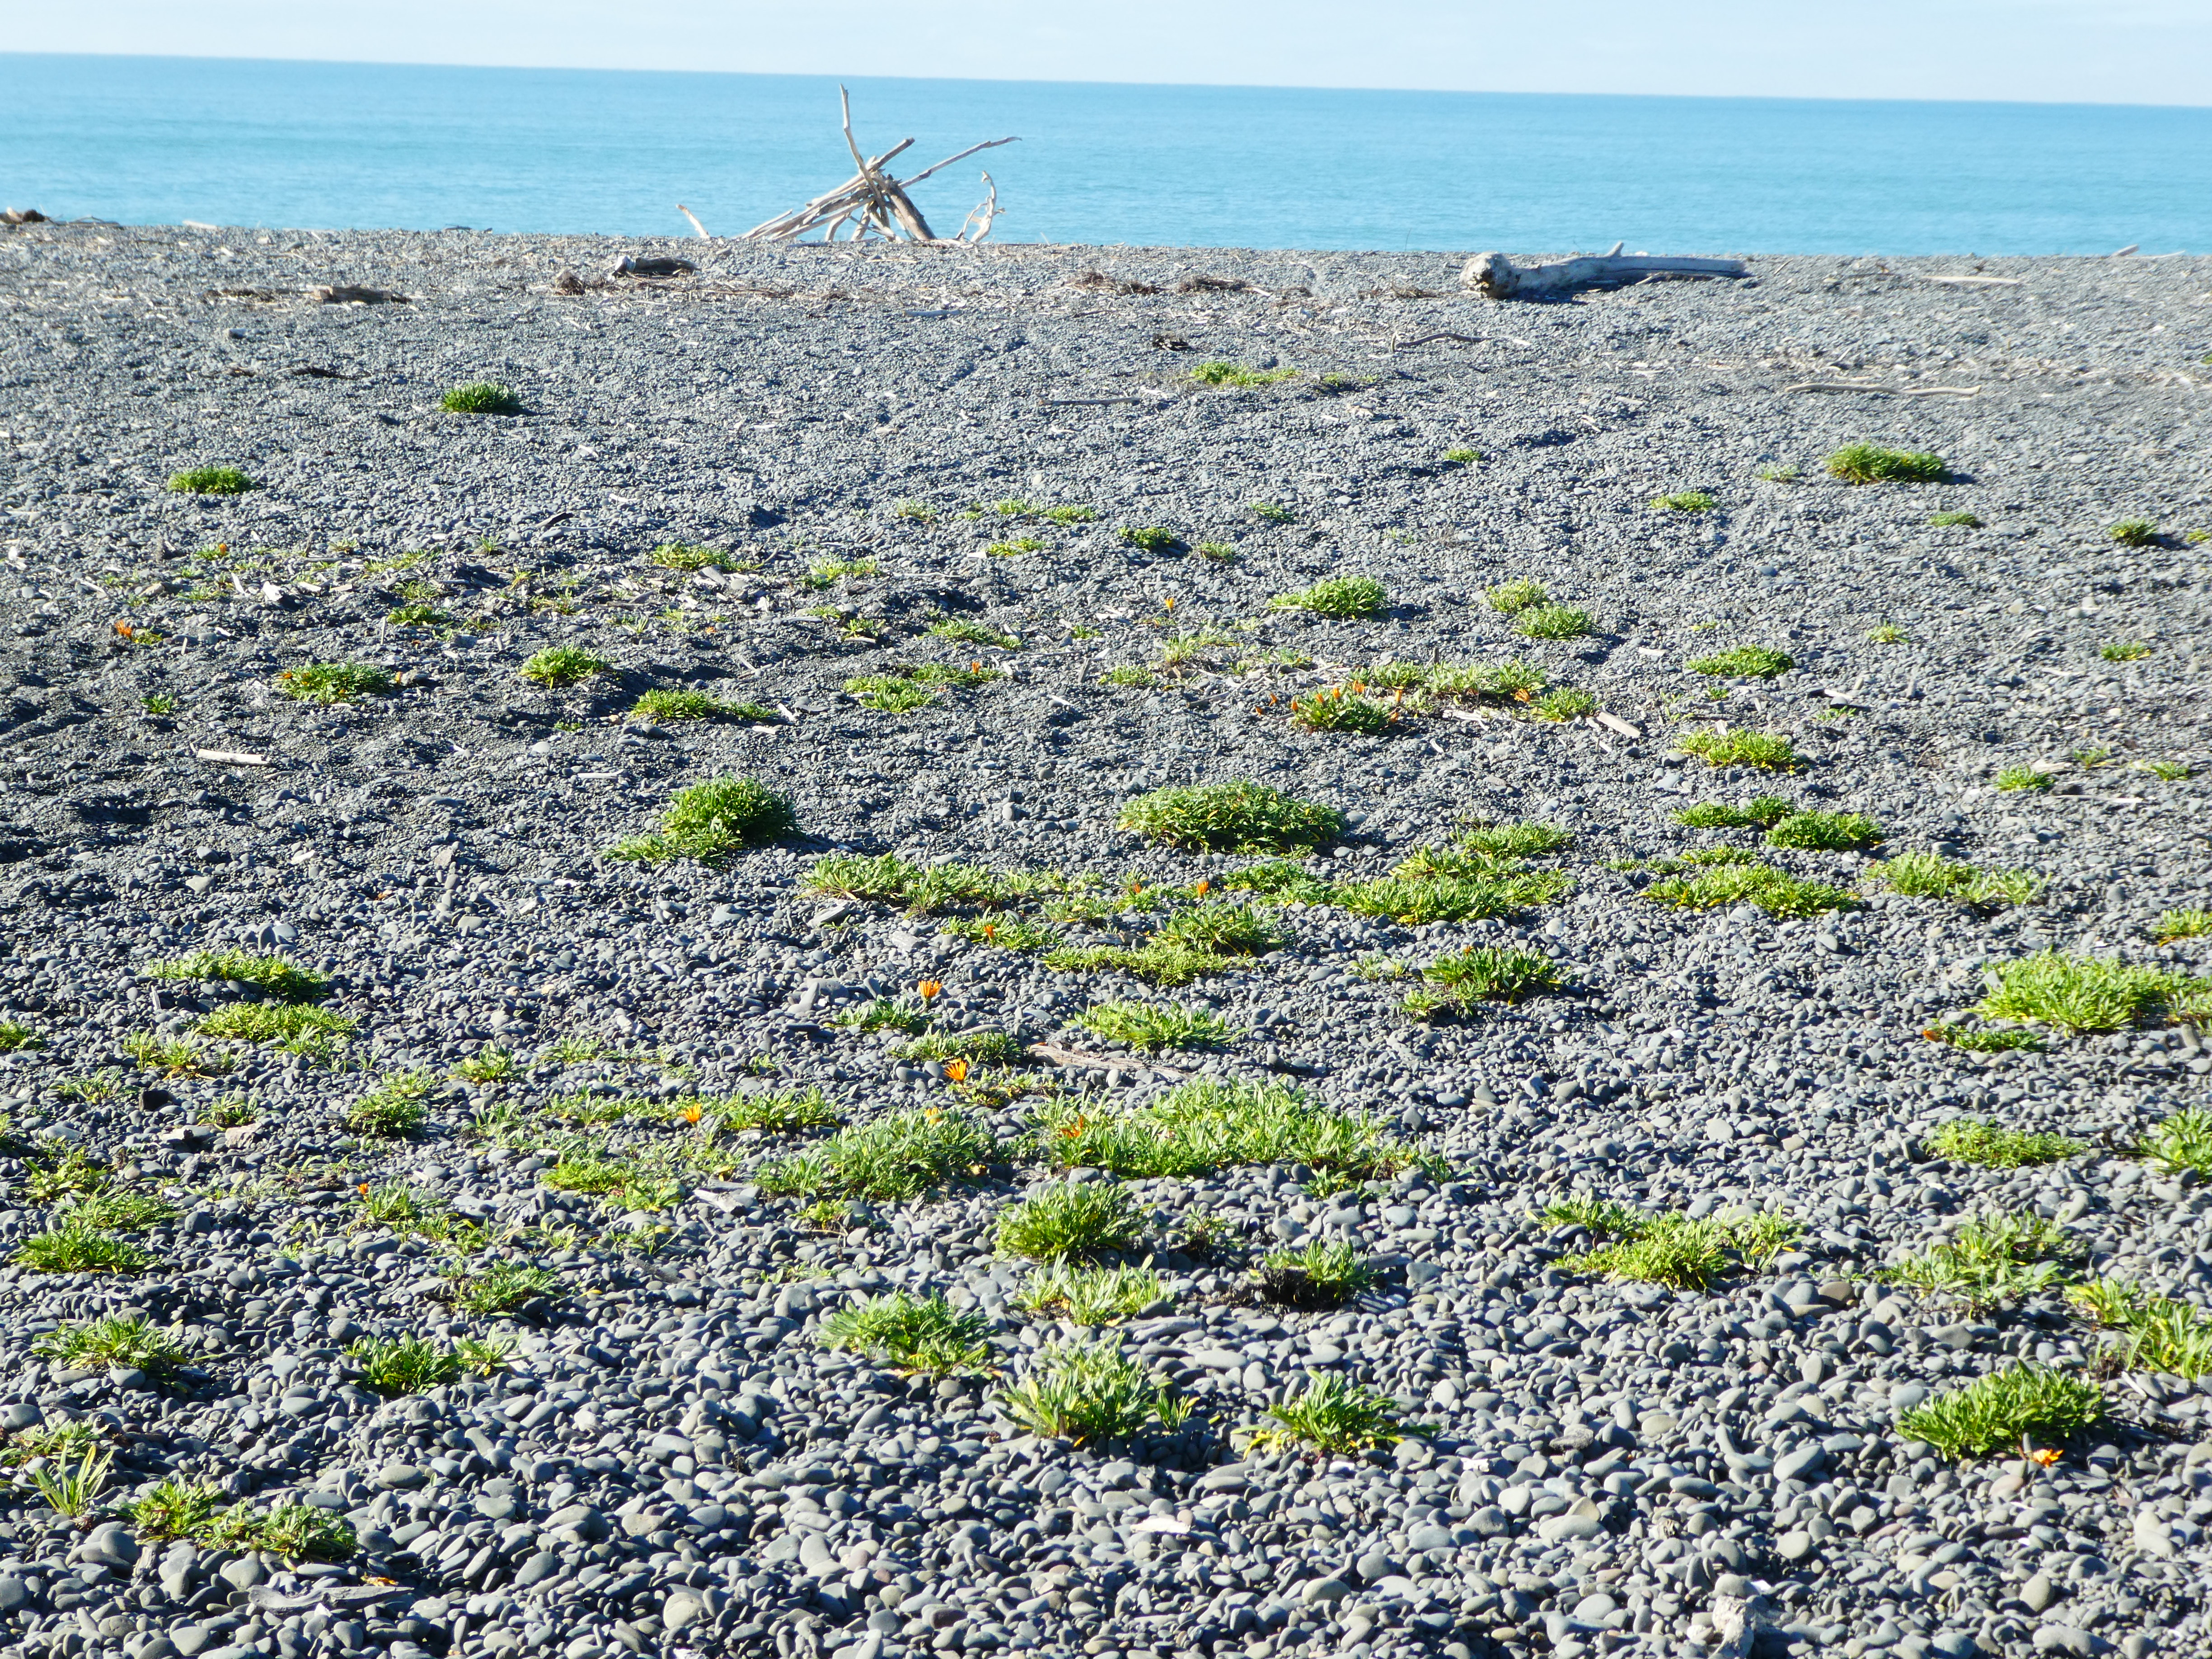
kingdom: Plantae
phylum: Tracheophyta
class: Magnoliopsida
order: Asterales
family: Asteraceae
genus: Gazania
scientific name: Gazania linearis
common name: Treasureflower
